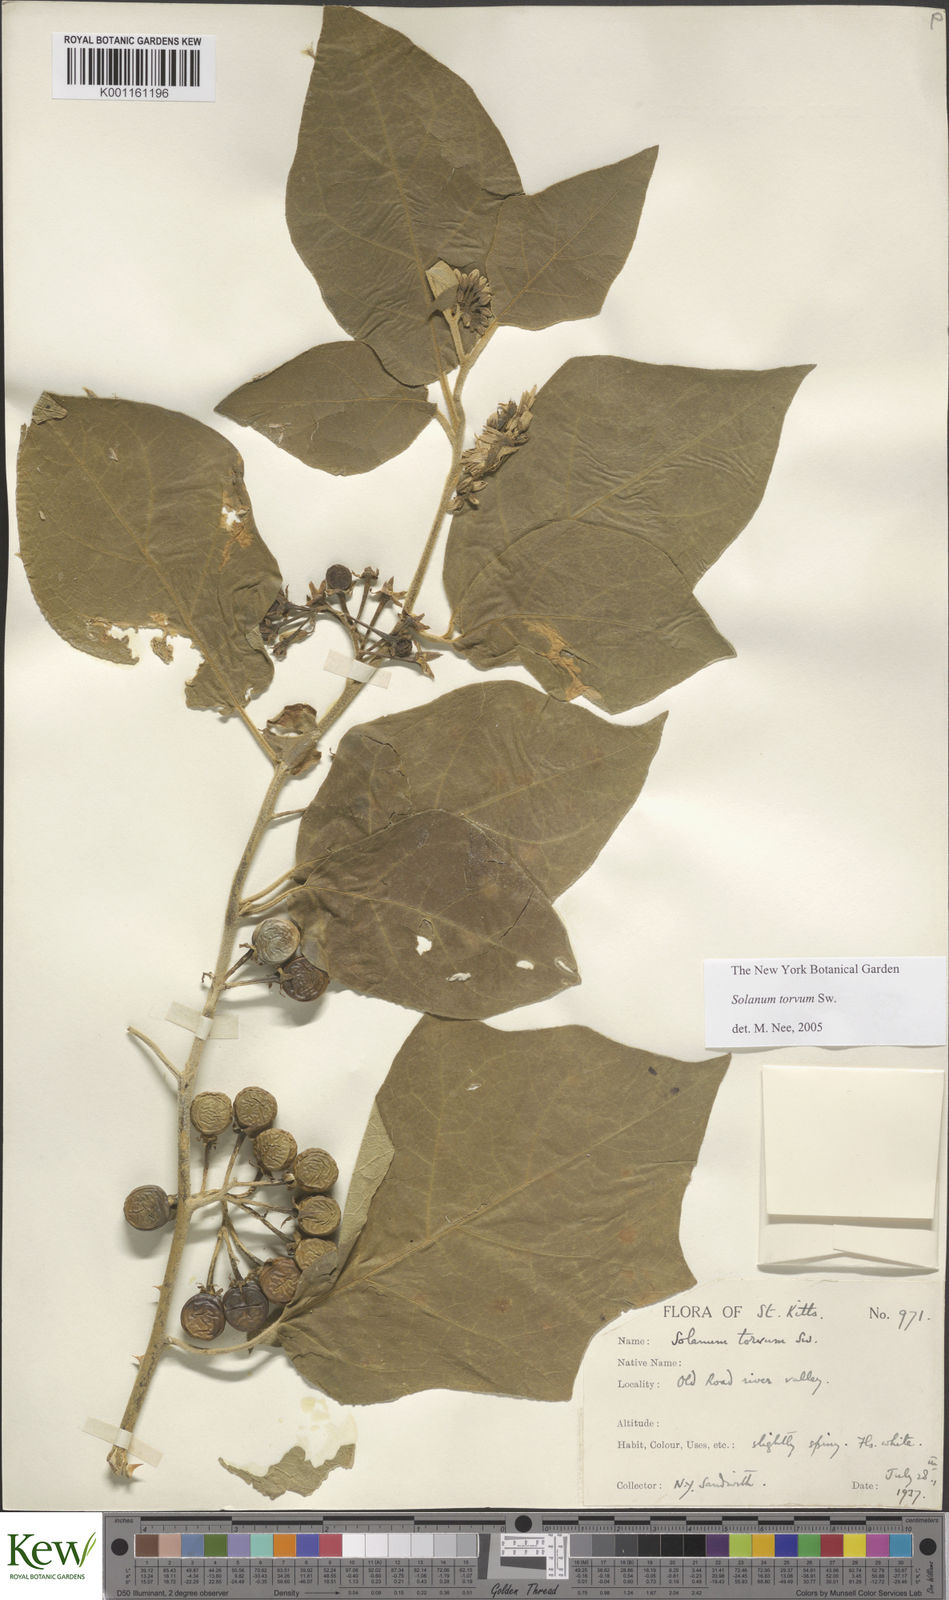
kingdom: Plantae
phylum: Tracheophyta
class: Magnoliopsida
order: Solanales
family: Solanaceae
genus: Solanum
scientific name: Solanum torvum
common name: Turkey berry
